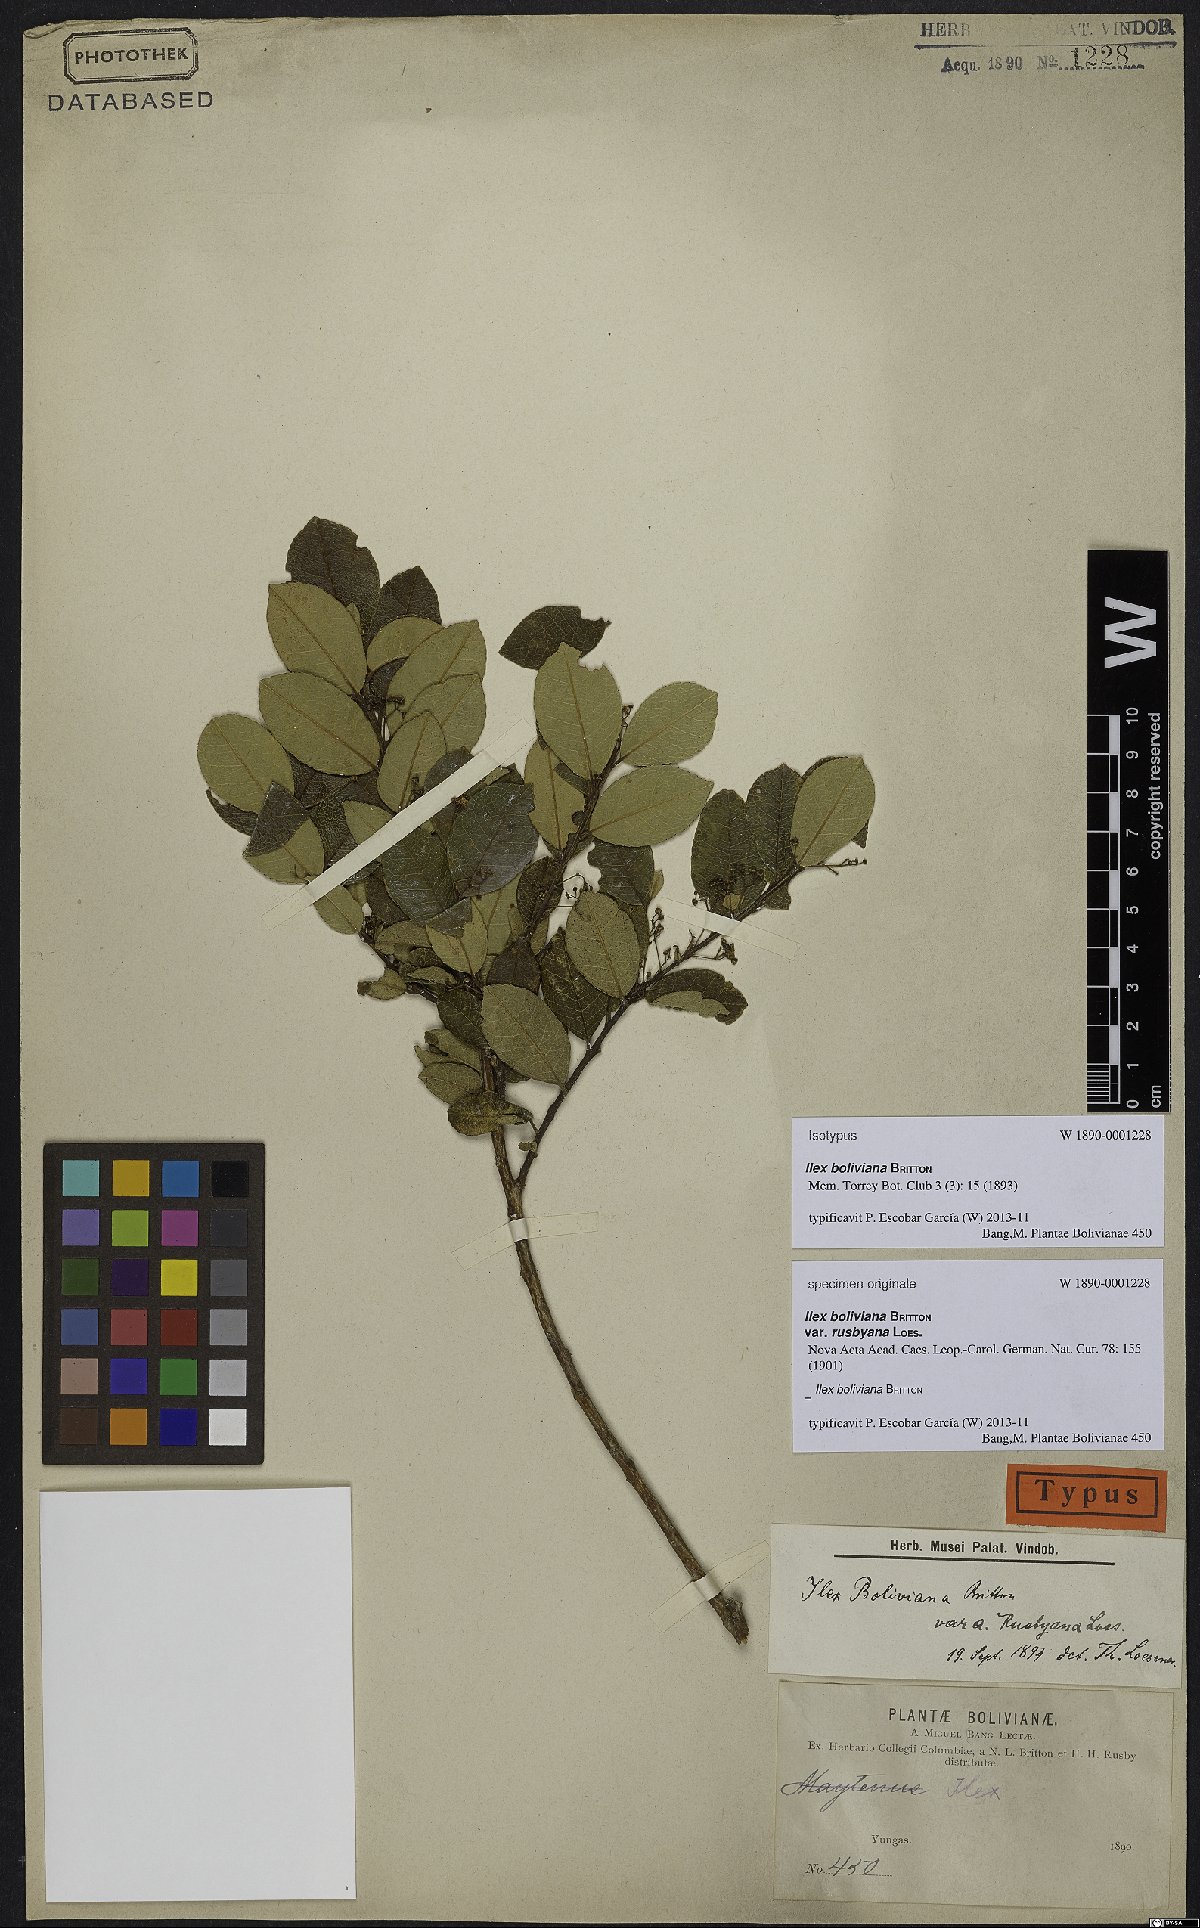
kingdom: Plantae
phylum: Tracheophyta
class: Magnoliopsida
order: Aquifoliales
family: Aquifoliaceae
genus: Ilex
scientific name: Ilex boliviana
